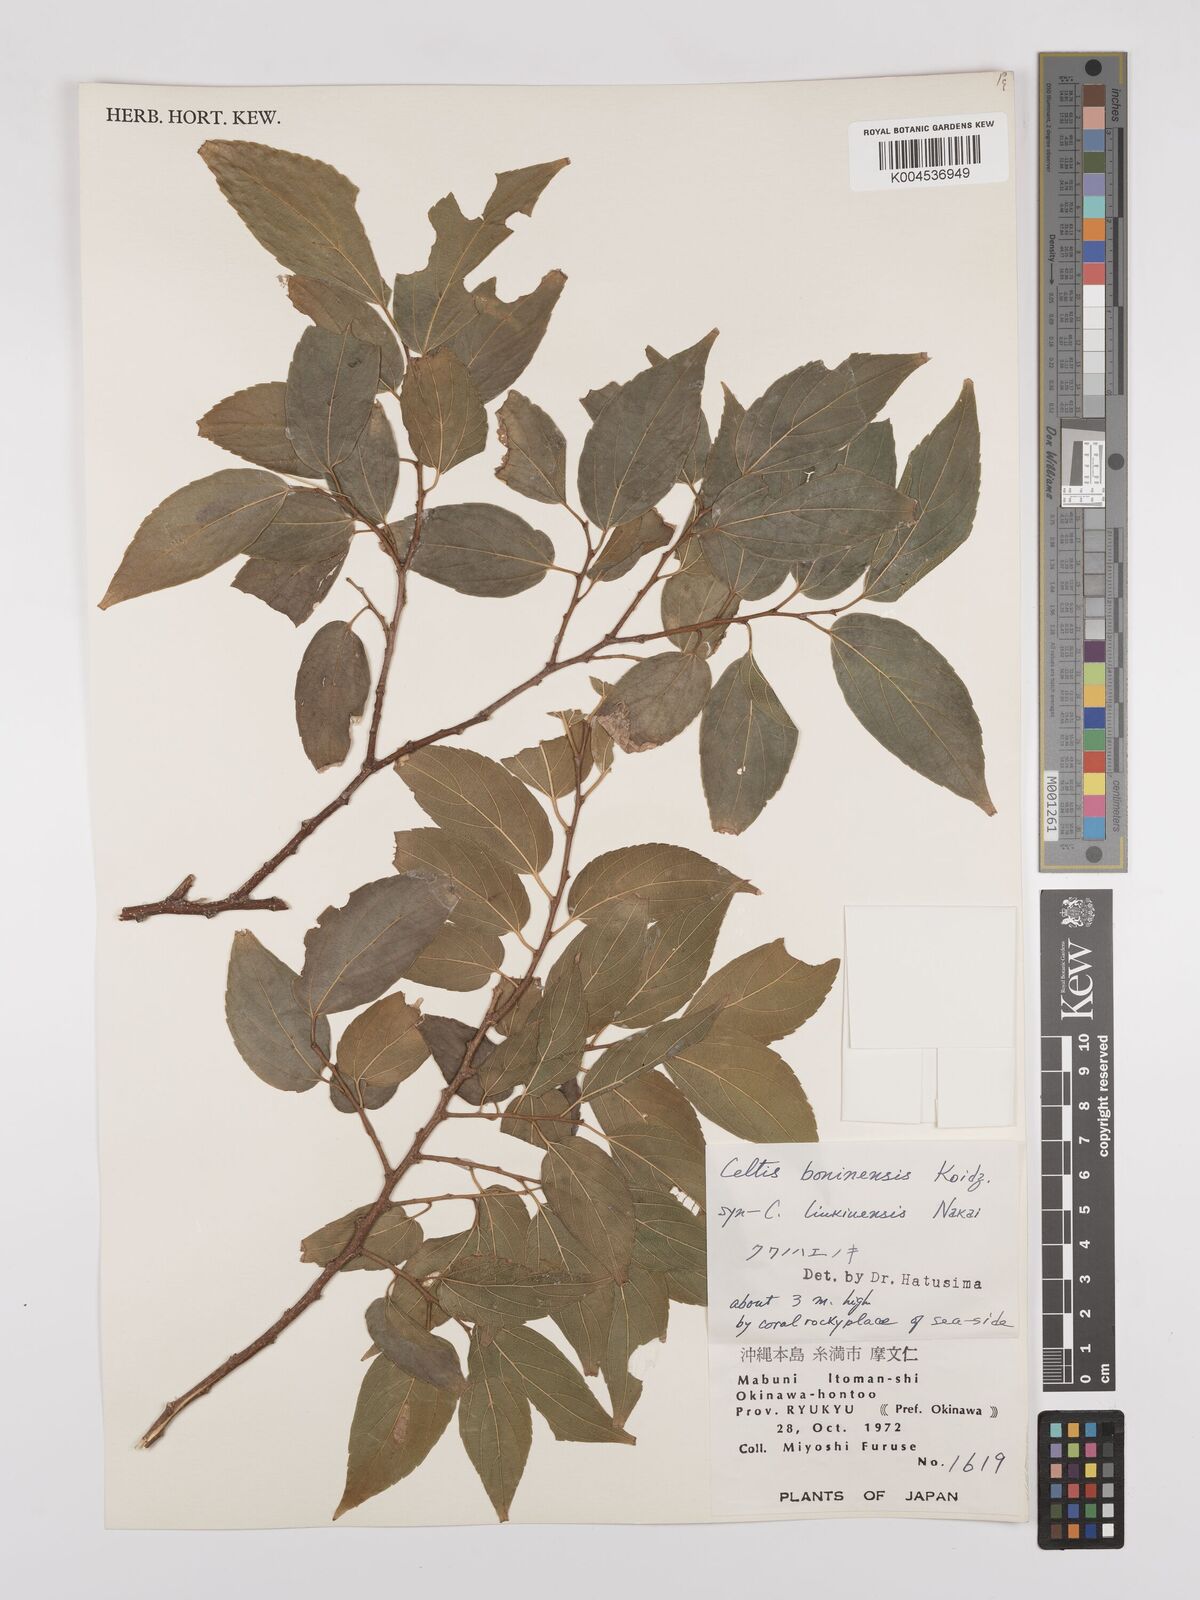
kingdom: Plantae
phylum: Tracheophyta
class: Magnoliopsida
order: Rosales
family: Cannabaceae
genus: Celtis
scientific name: Celtis boninensis
